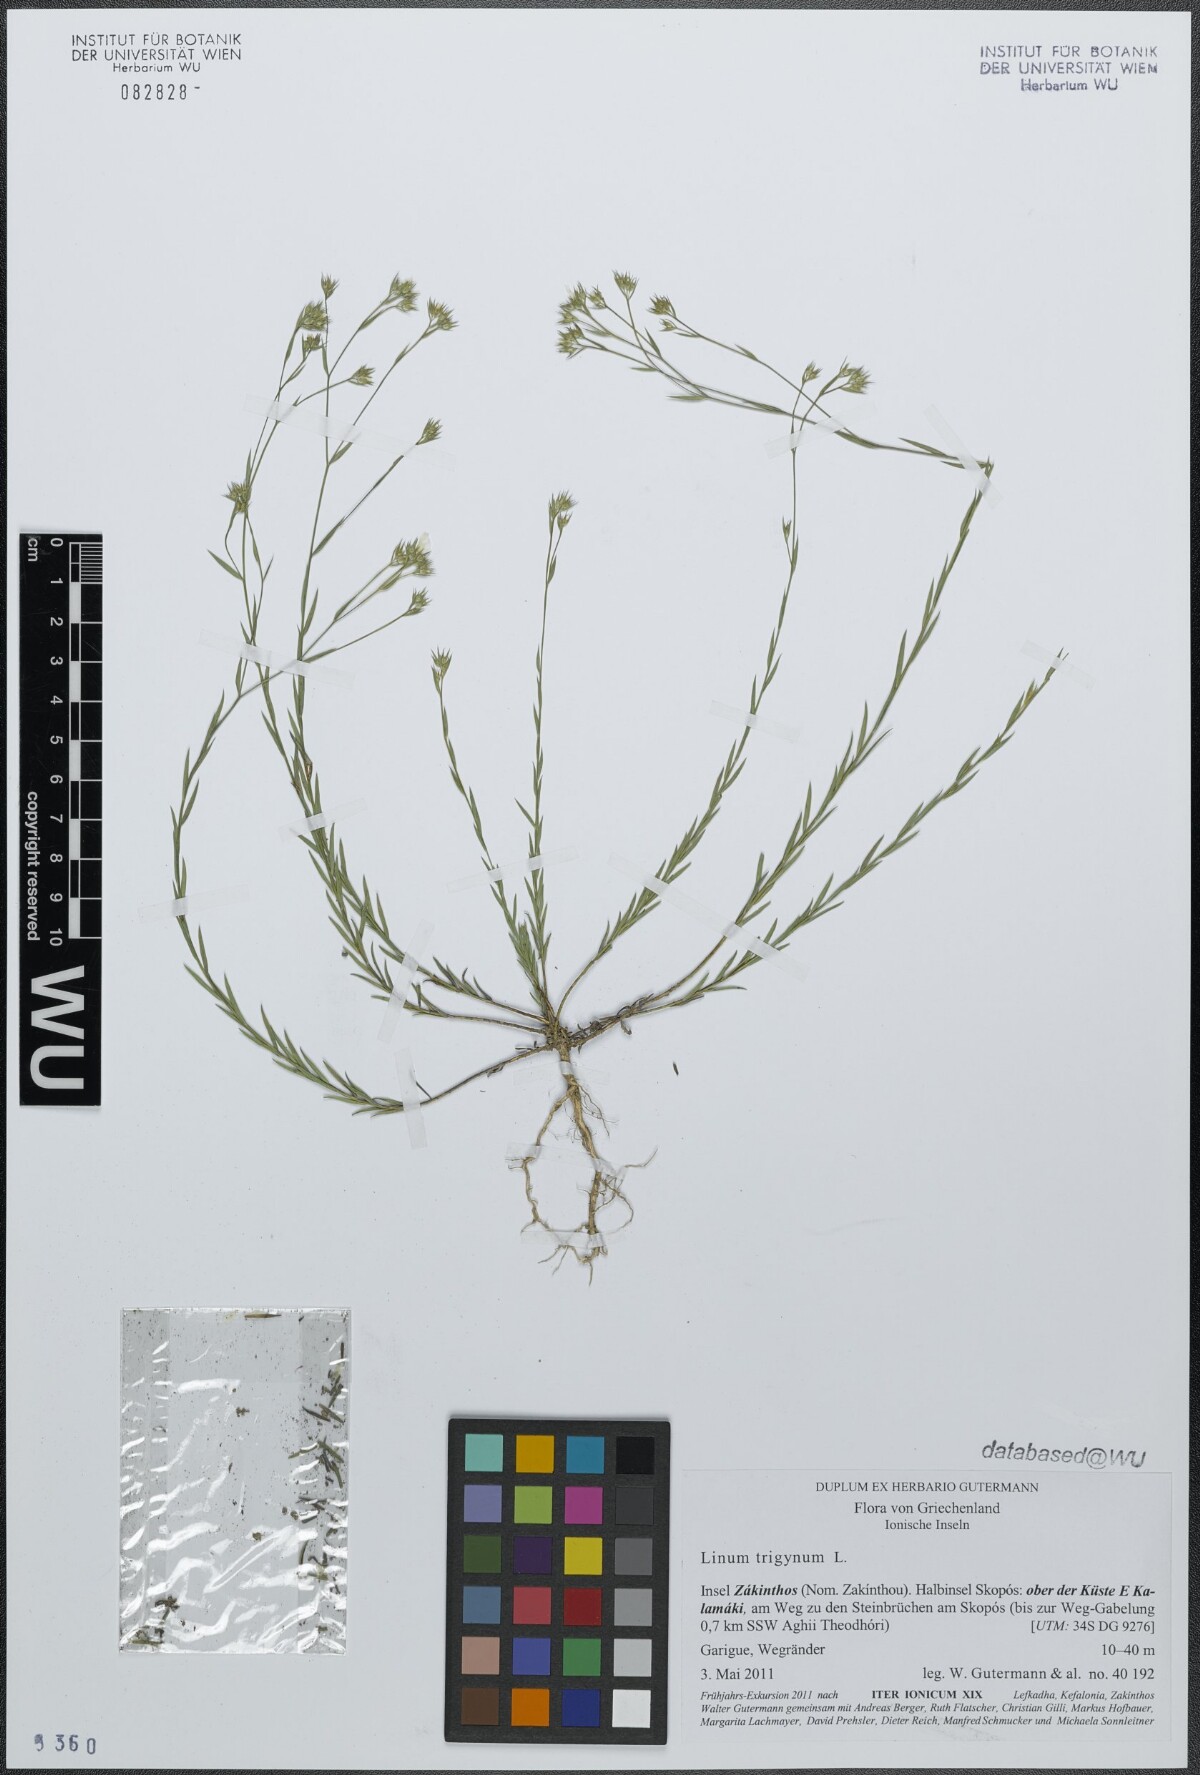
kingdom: Plantae
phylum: Tracheophyta
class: Magnoliopsida
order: Malpighiales
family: Linaceae
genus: Linum
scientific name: Linum trigynum
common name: French flax
